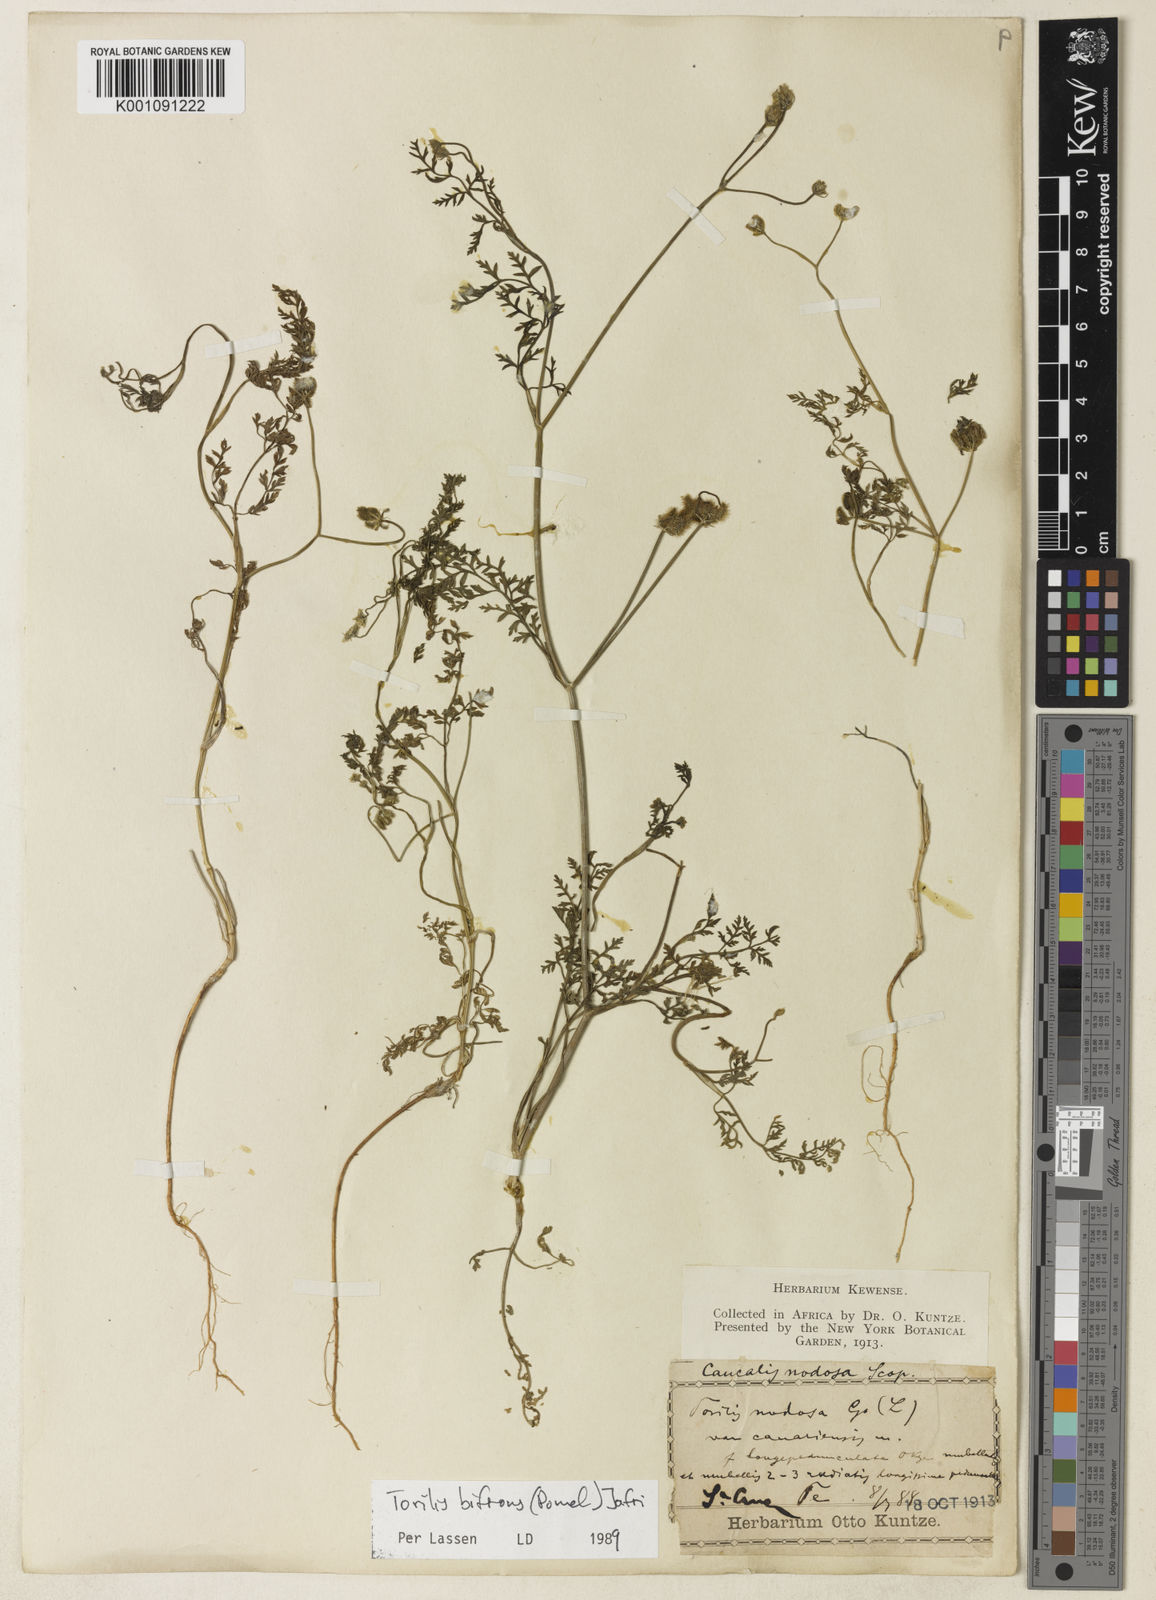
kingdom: Plantae
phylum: Tracheophyta
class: Magnoliopsida
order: Apiales
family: Apiaceae
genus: Torilis
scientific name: Torilis elongata
